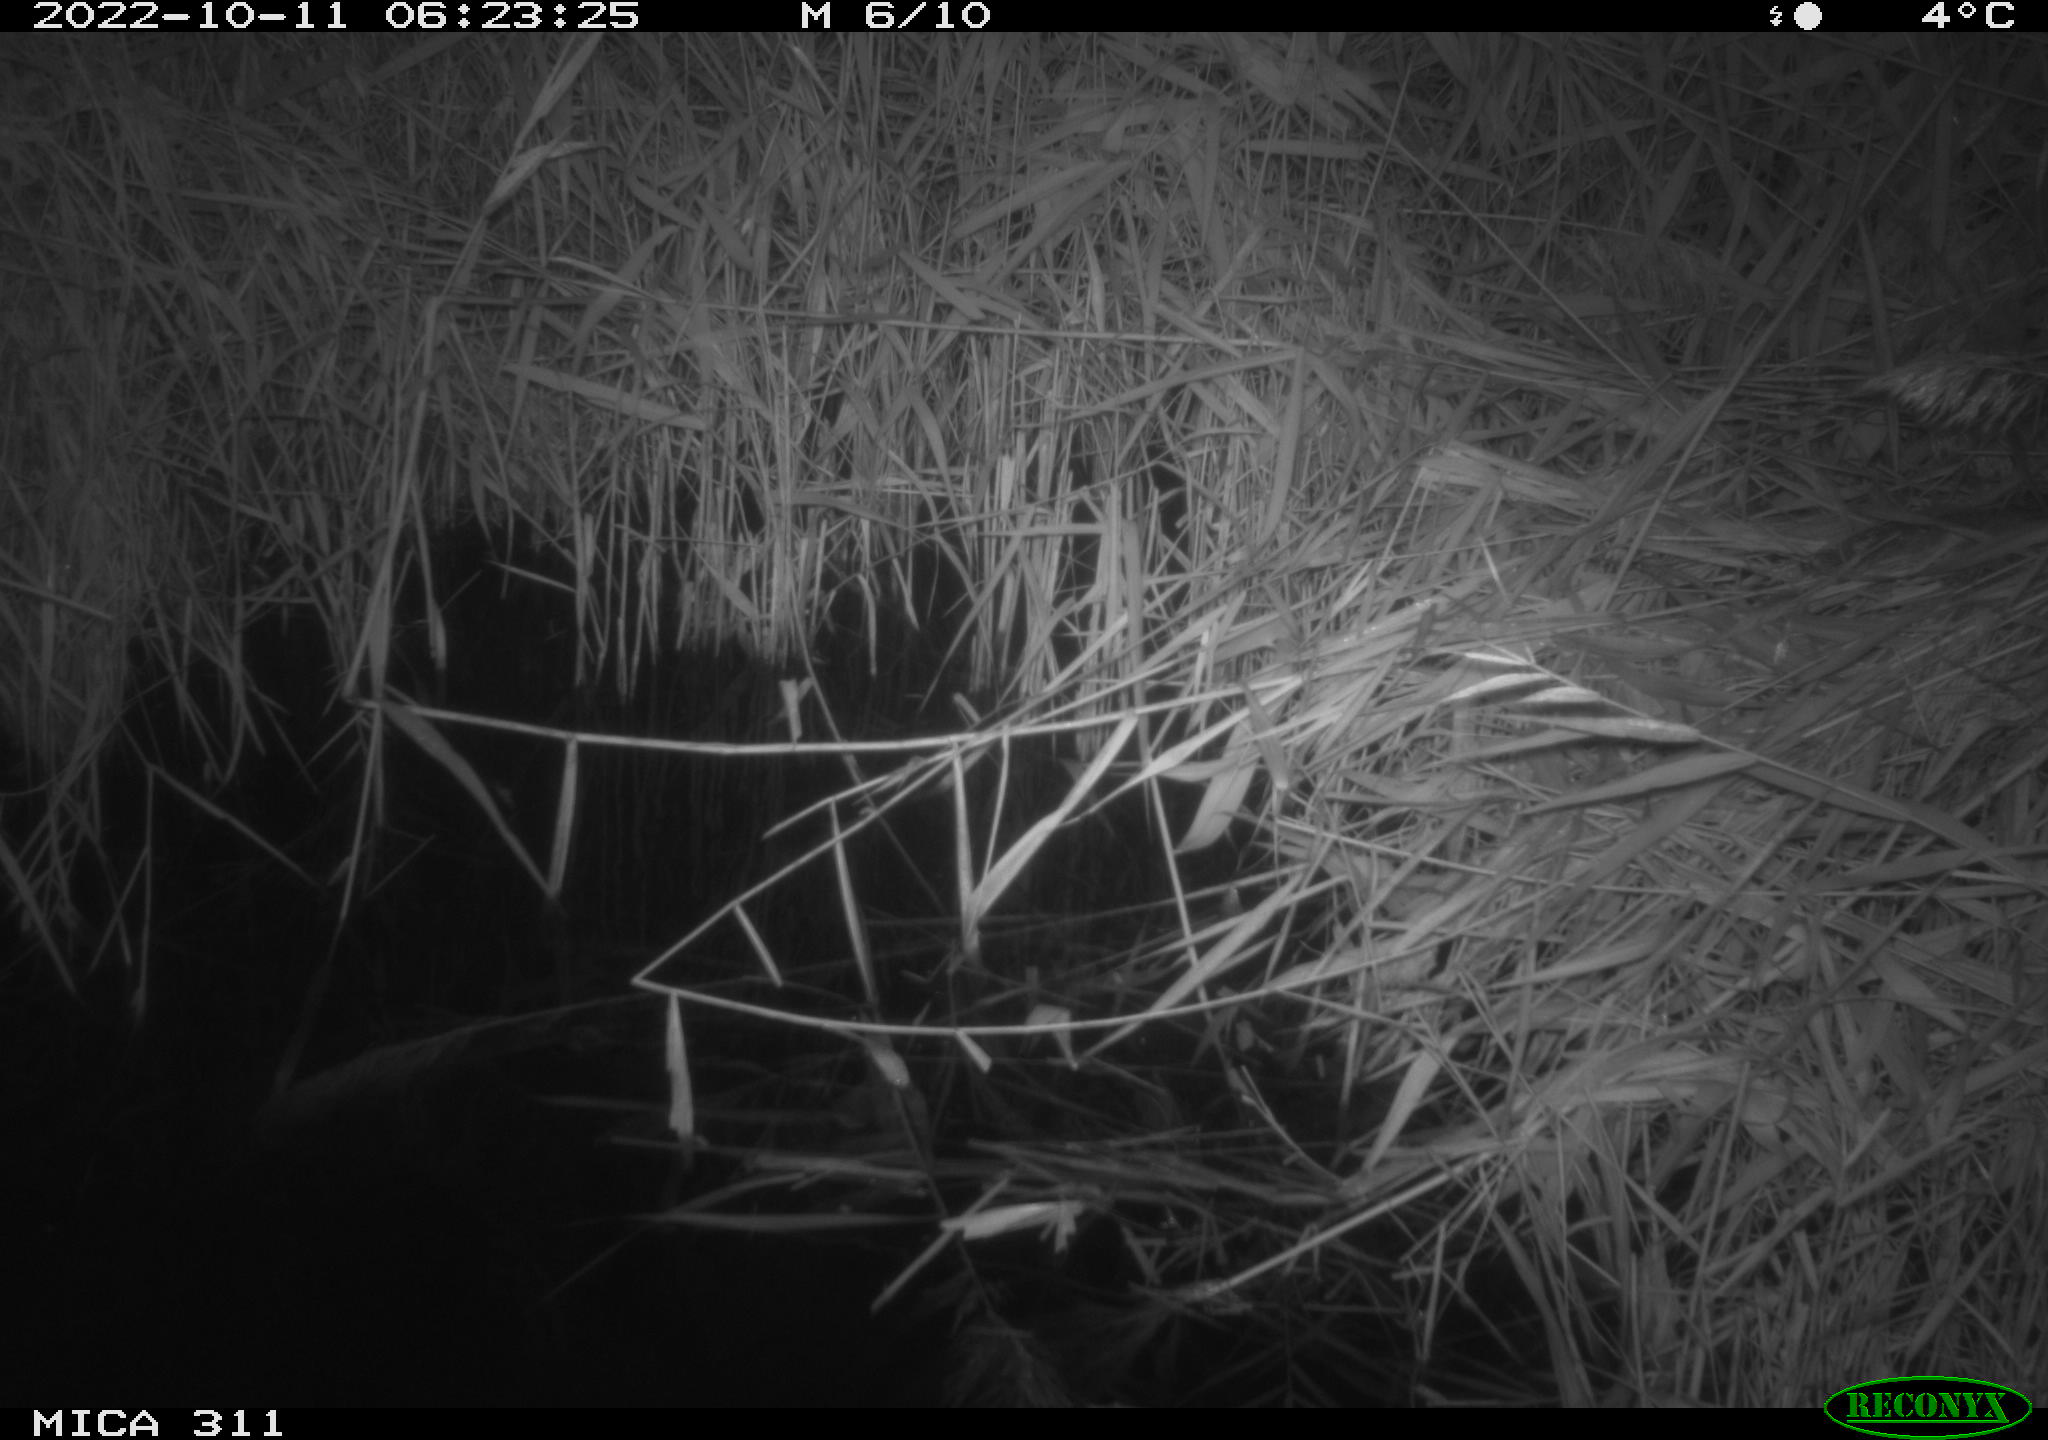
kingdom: Animalia
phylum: Chordata
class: Mammalia
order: Rodentia
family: Muridae
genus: Rattus
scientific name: Rattus norvegicus
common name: Brown rat
